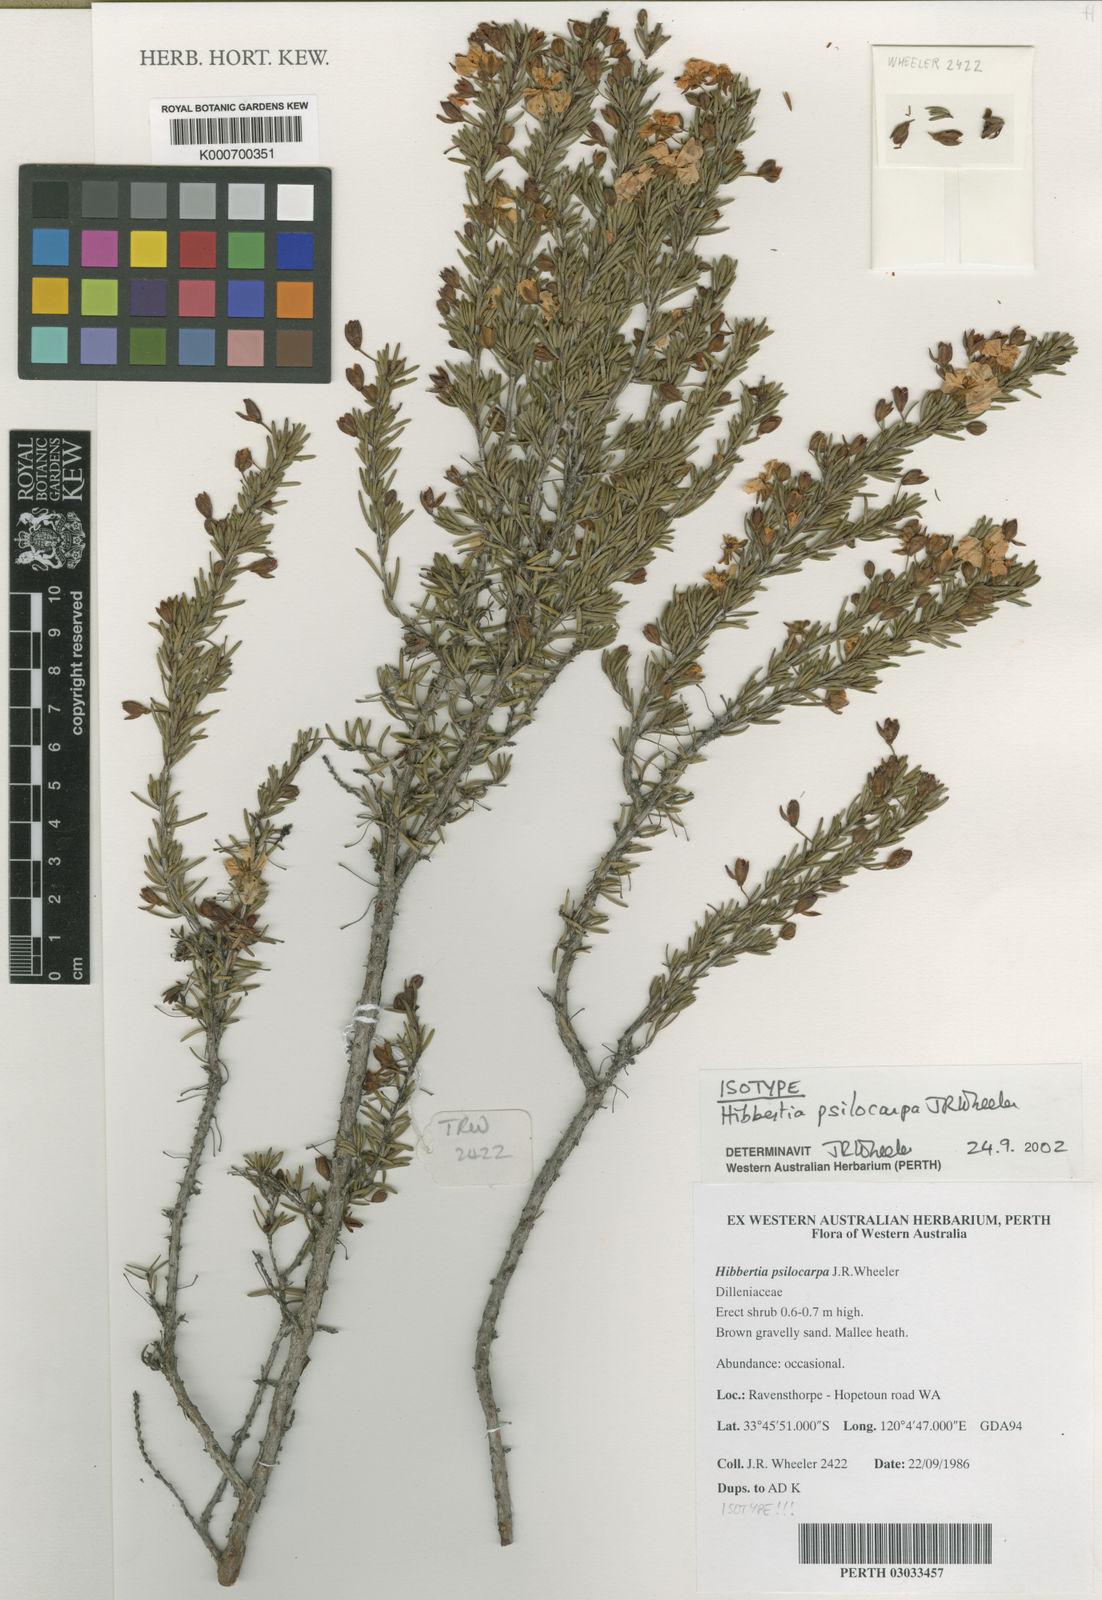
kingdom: Plantae
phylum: Tracheophyta
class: Magnoliopsida
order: Dilleniales
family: Dilleniaceae
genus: Hibbertia
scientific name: Hibbertia psilocarpa
